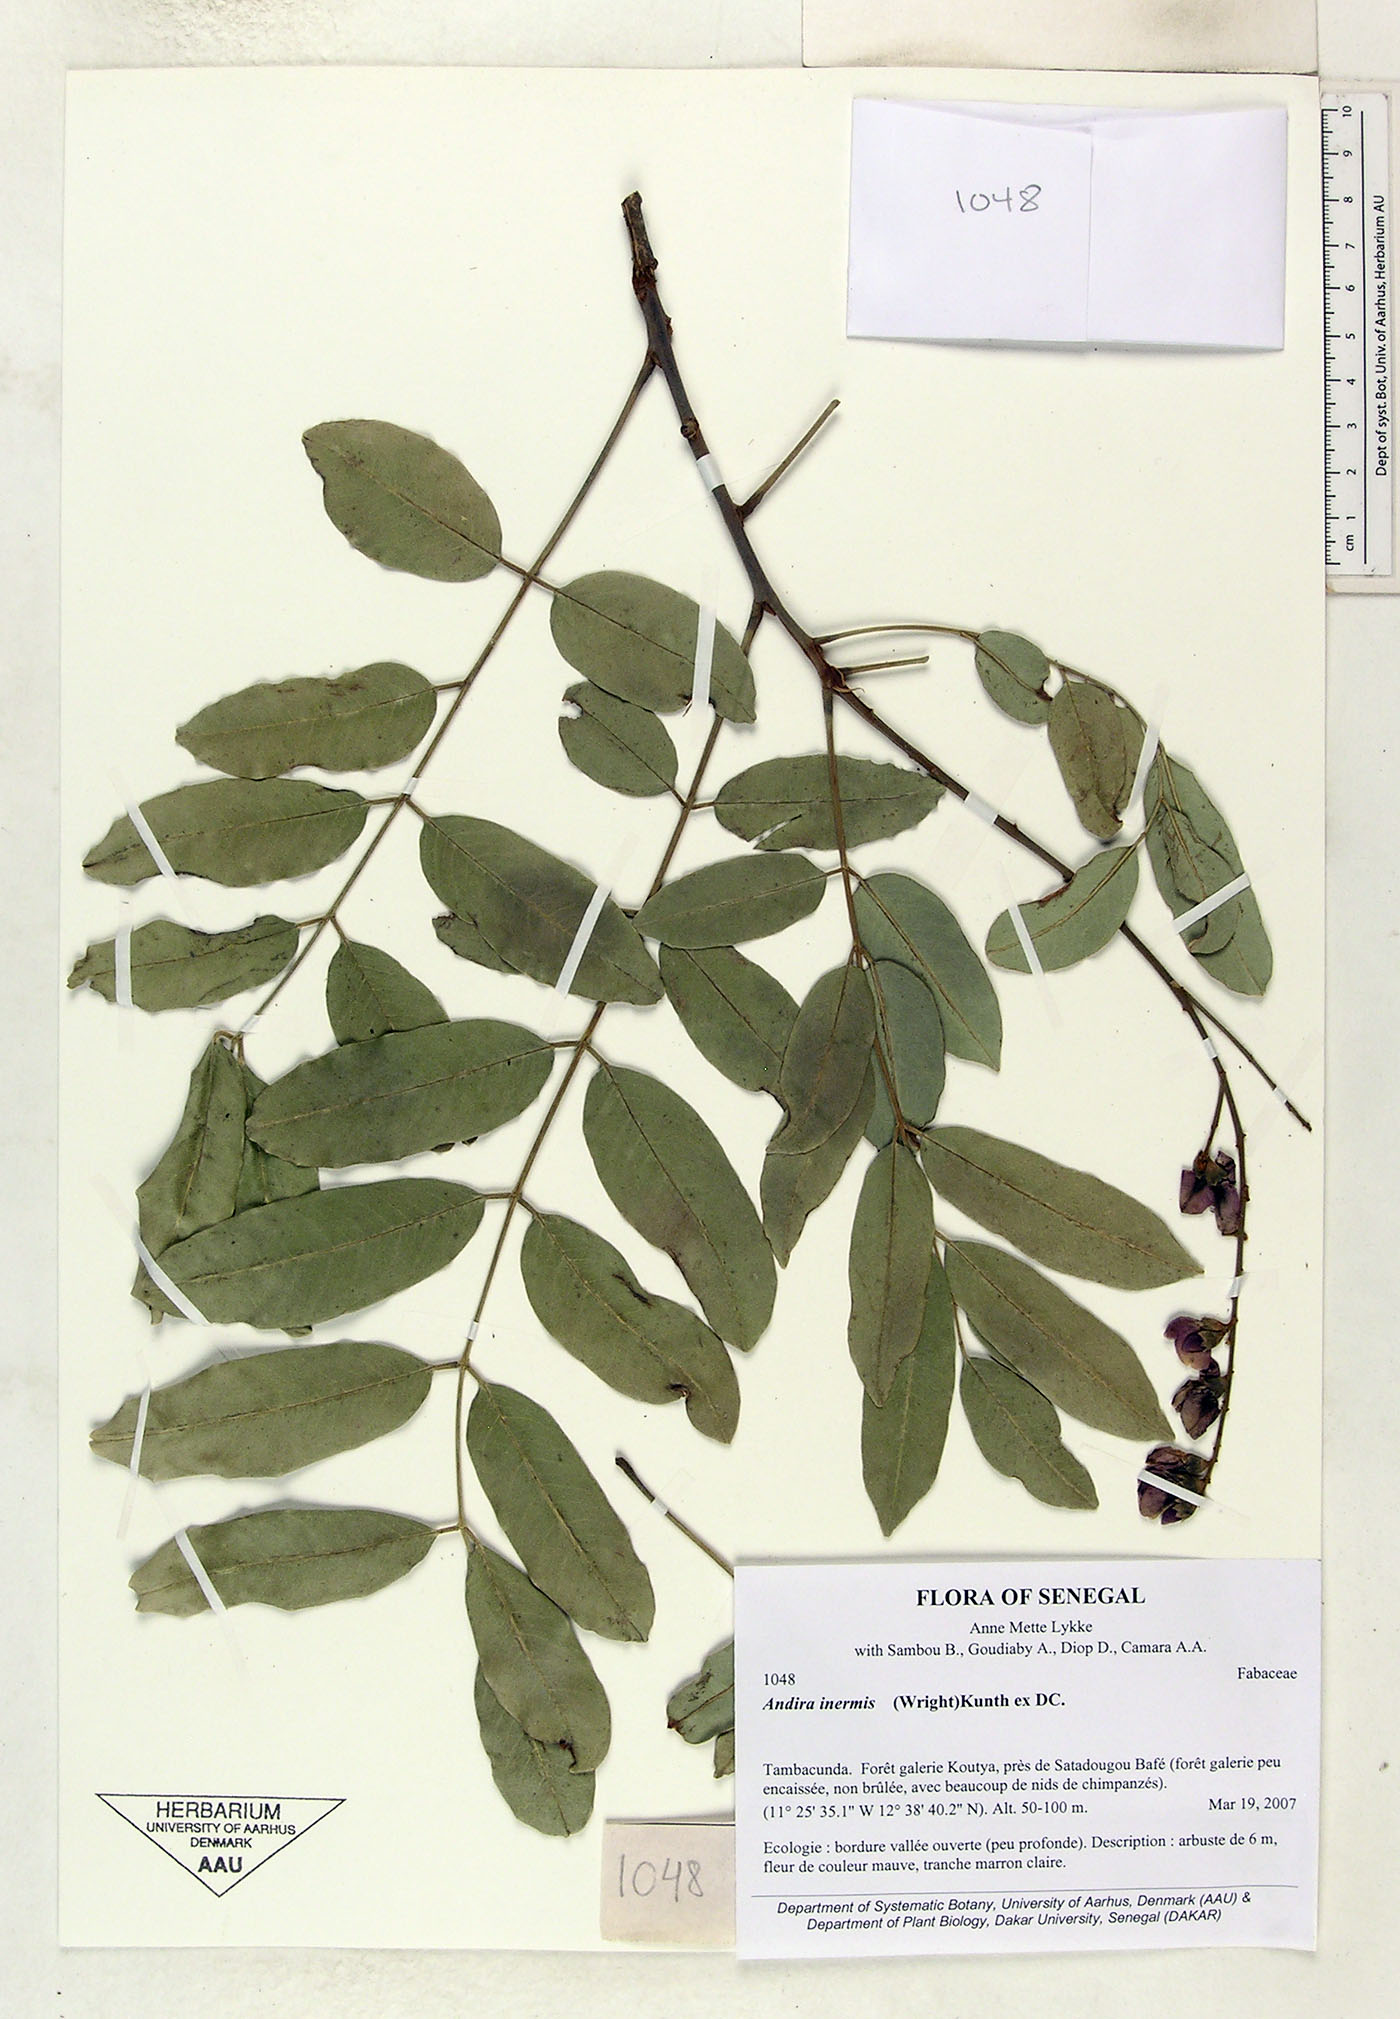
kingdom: Plantae
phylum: Tracheophyta
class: Magnoliopsida
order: Fabales
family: Fabaceae
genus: Andira
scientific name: Andira inermis
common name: Angelin
